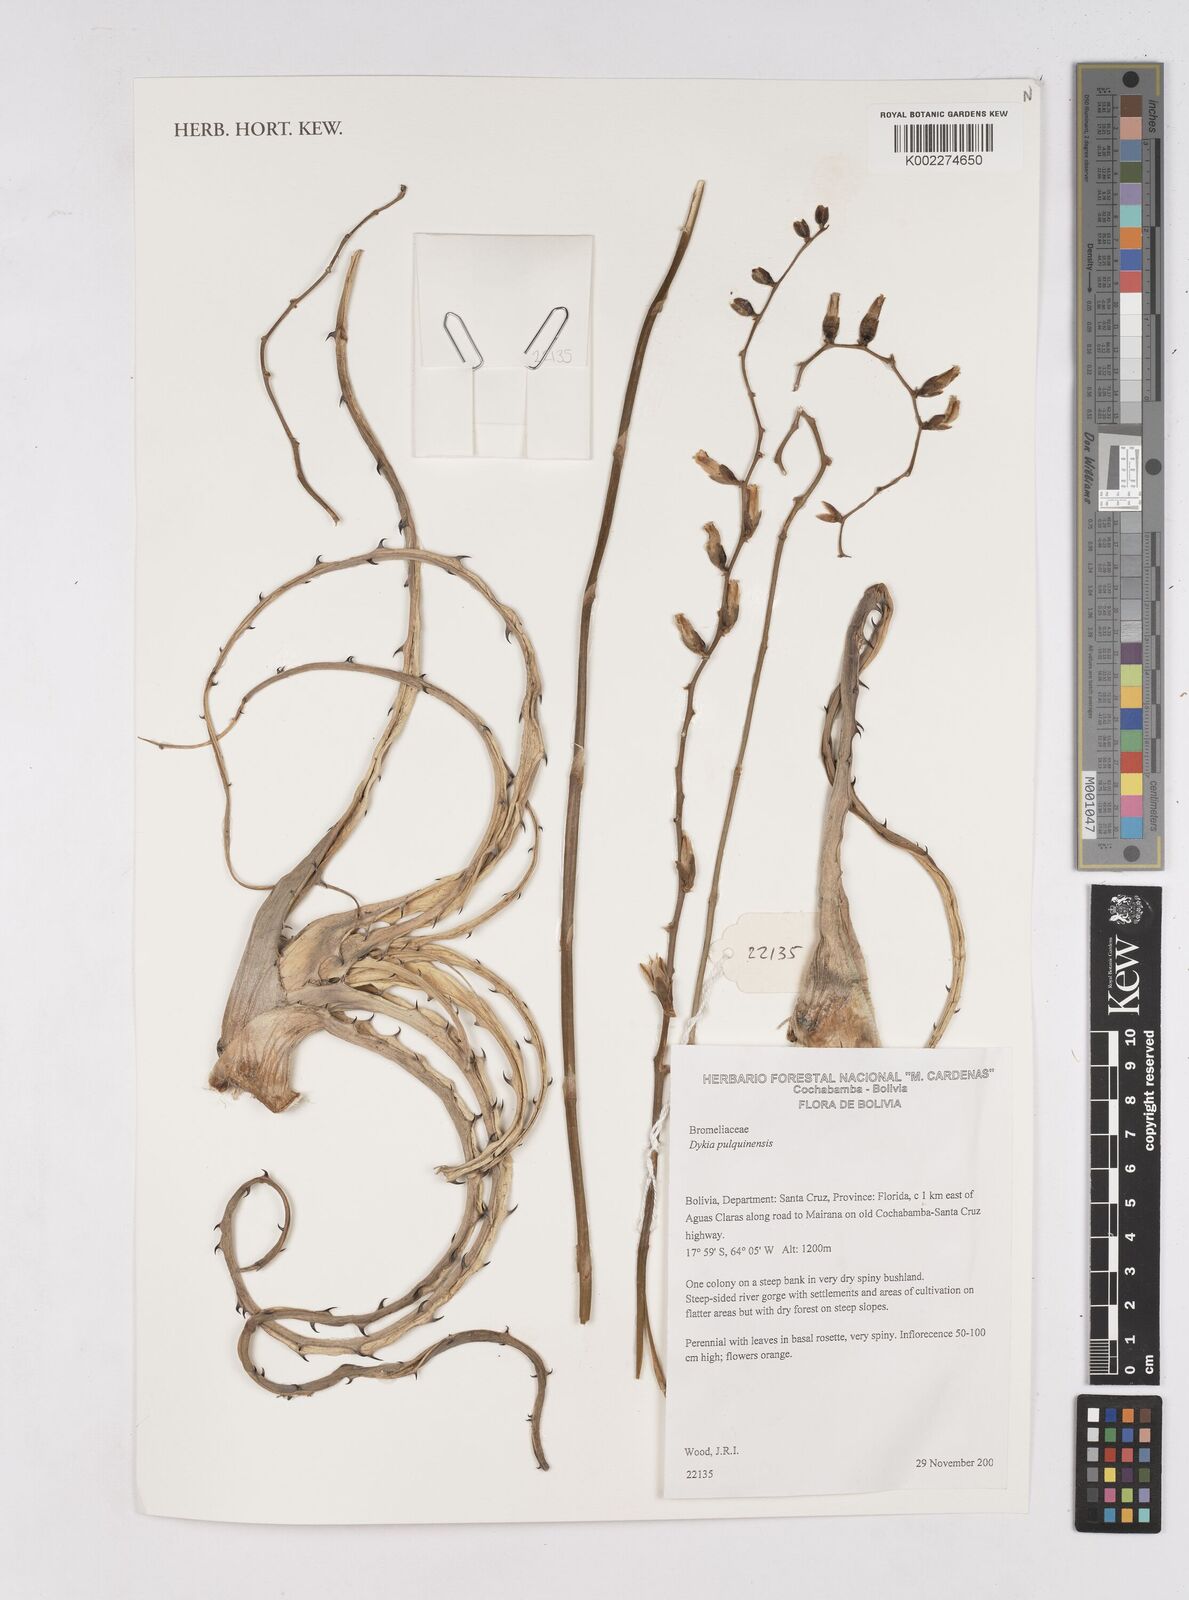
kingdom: Plantae
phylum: Tracheophyta
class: Liliopsida
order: Poales
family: Bromeliaceae
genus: Dyckia
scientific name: Dyckia pulquinensis
